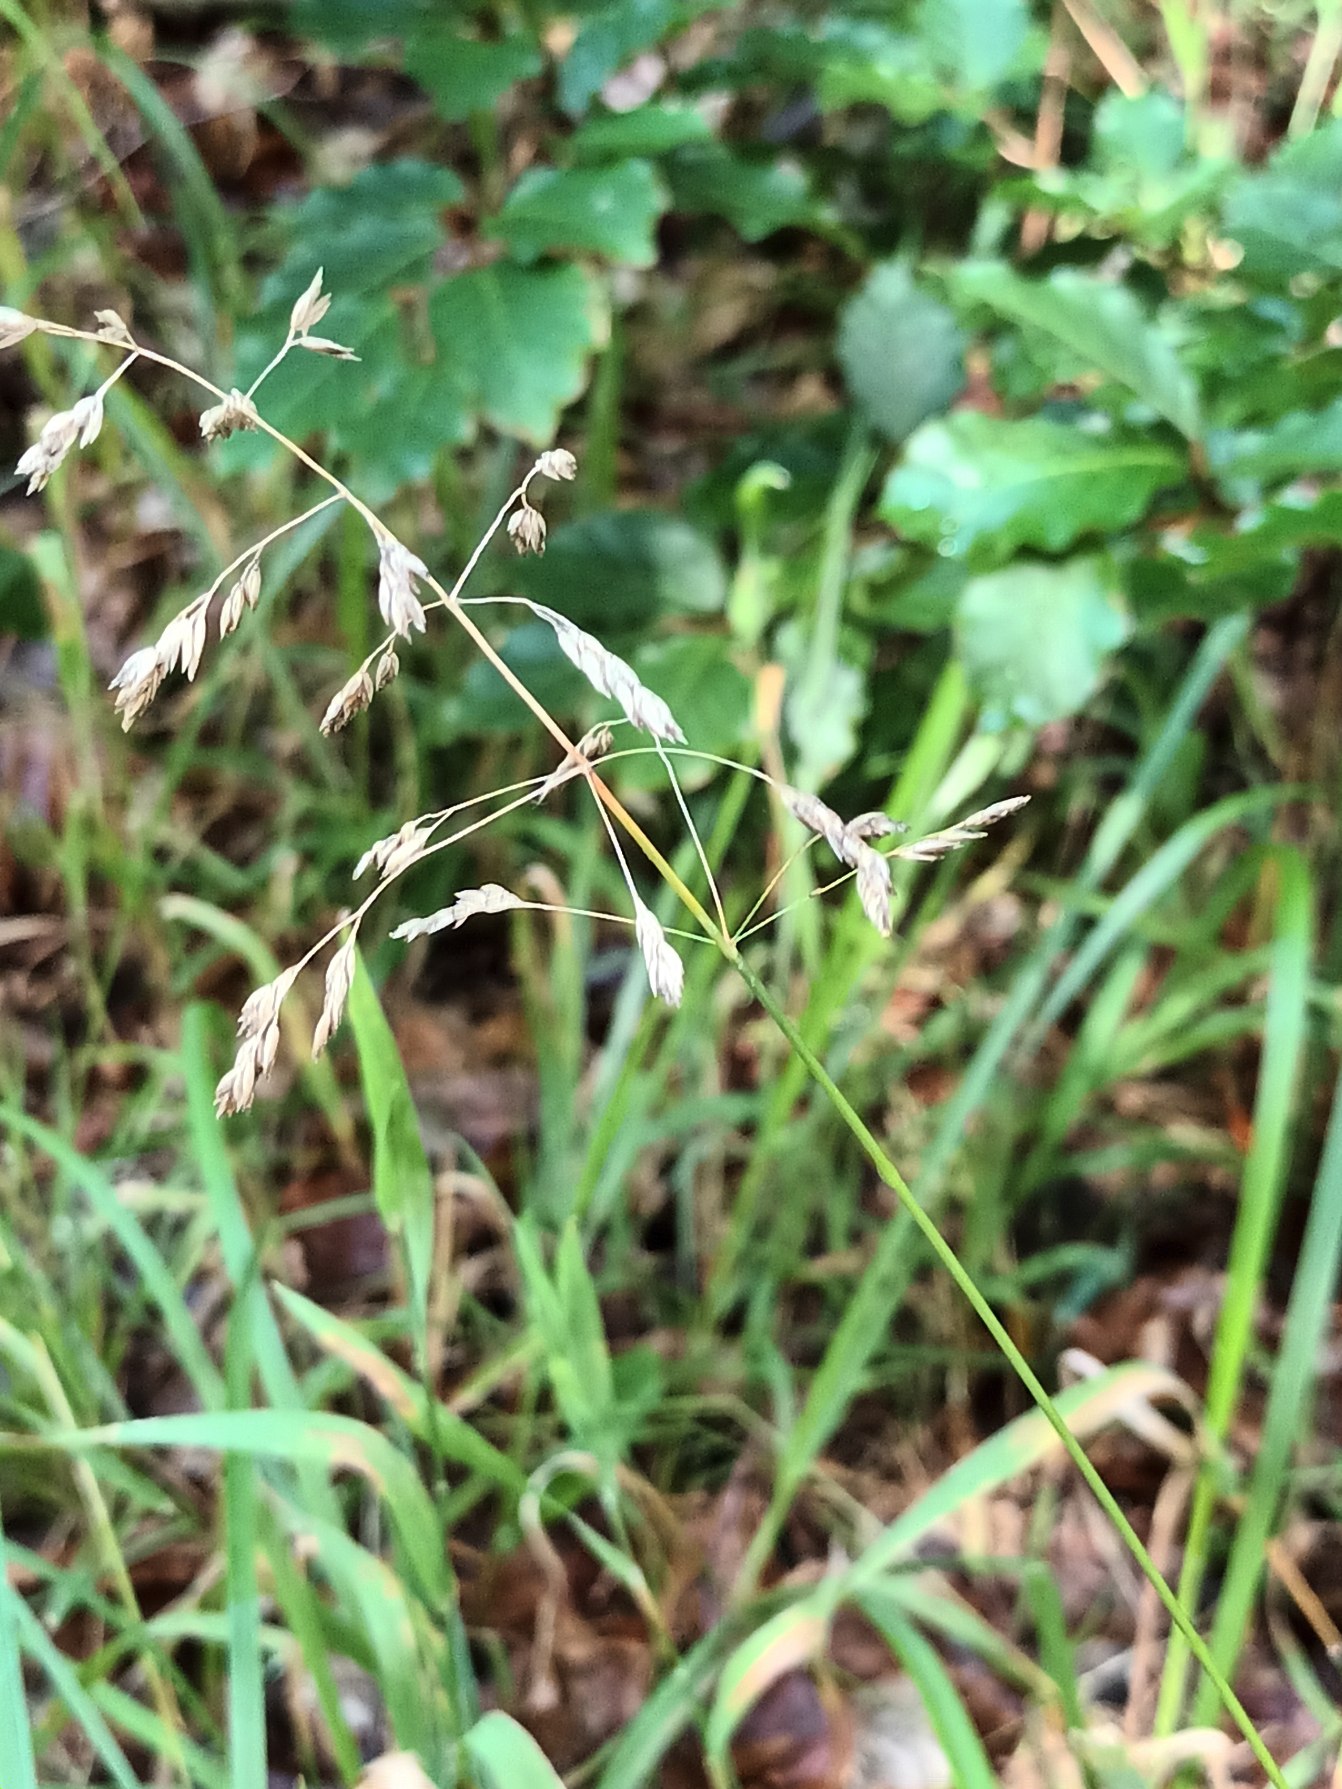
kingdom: Plantae
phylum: Tracheophyta
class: Liliopsida
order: Poales
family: Poaceae
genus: Poa
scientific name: Poa pratensis
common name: Eng-rapgræs
